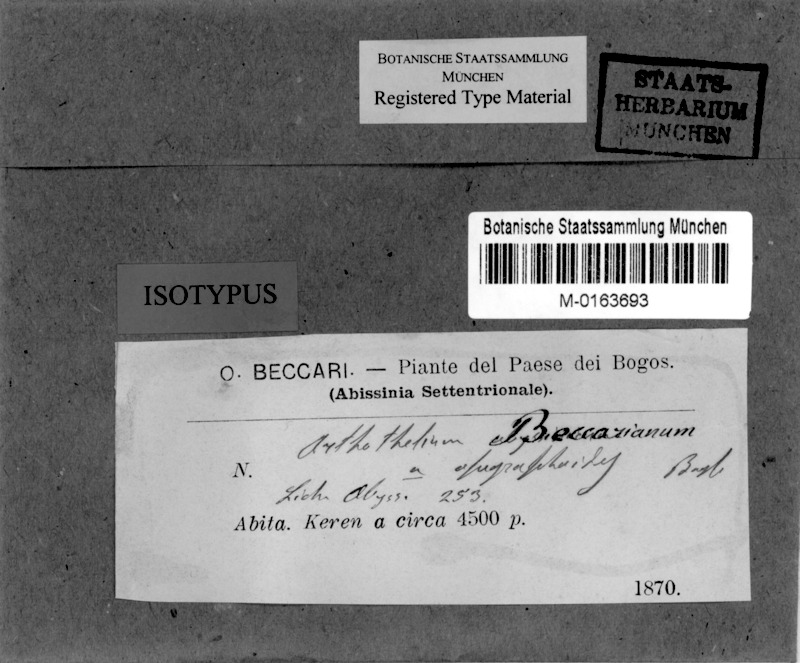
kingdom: Fungi
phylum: Ascomycota
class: Arthoniomycetes
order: Arthoniales
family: Arthoniaceae
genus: Arthonia
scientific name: Arthonia beccariana
